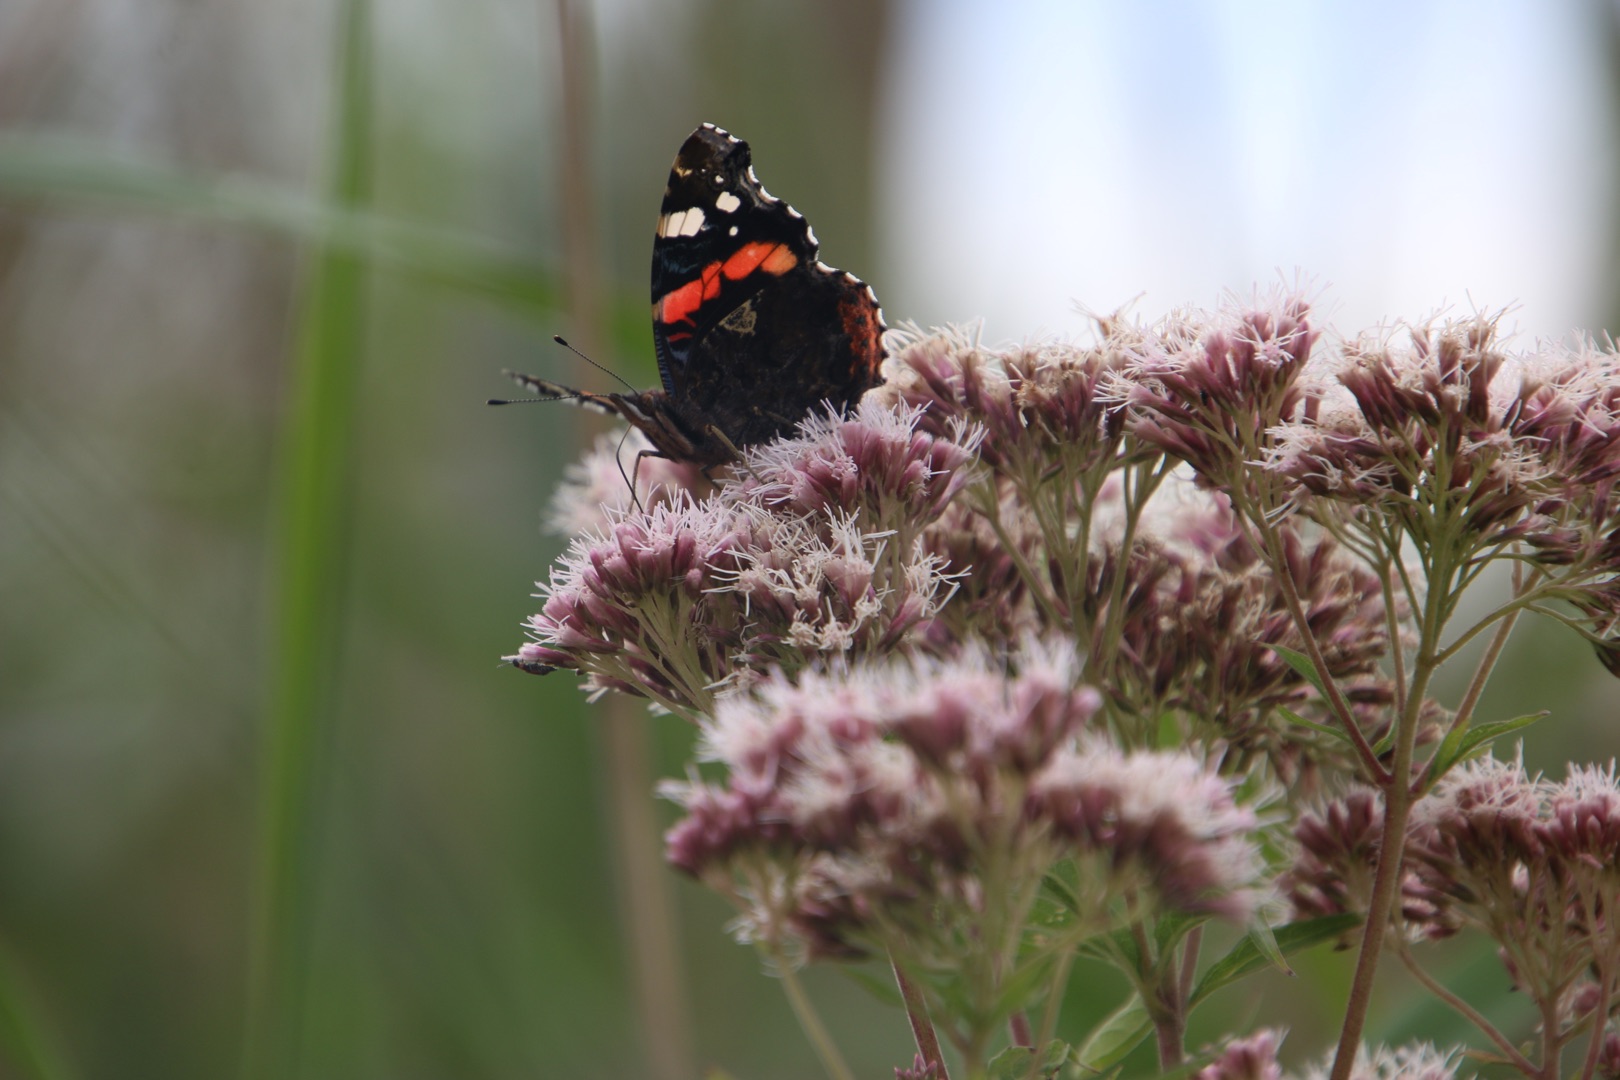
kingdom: Animalia
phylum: Arthropoda
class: Insecta
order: Lepidoptera
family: Nymphalidae
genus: Vanessa
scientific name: Vanessa atalanta
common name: Admiral
